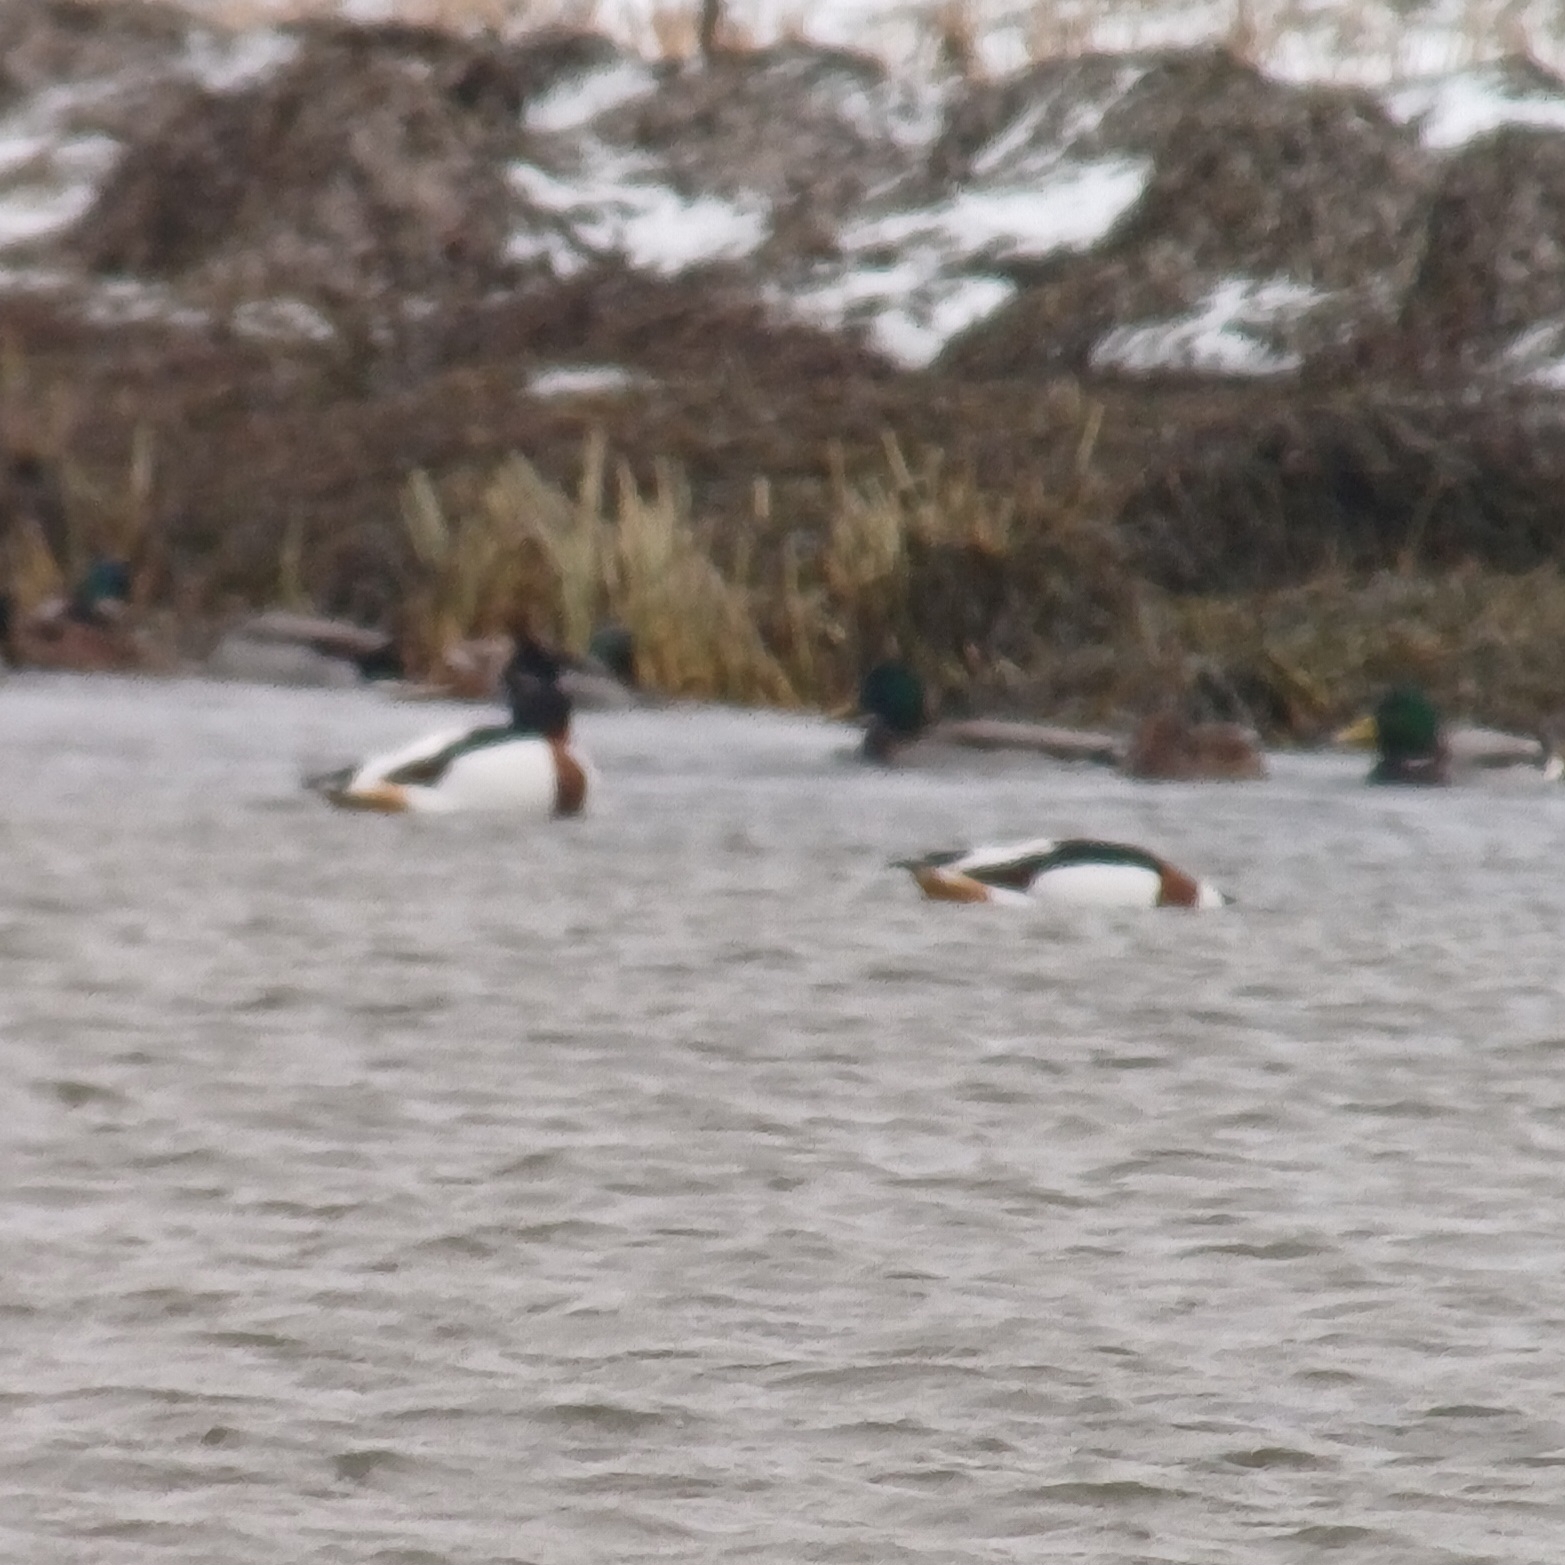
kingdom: Animalia
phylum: Chordata
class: Aves
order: Anseriformes
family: Anatidae
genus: Tadorna
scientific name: Tadorna tadorna
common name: Gravand
